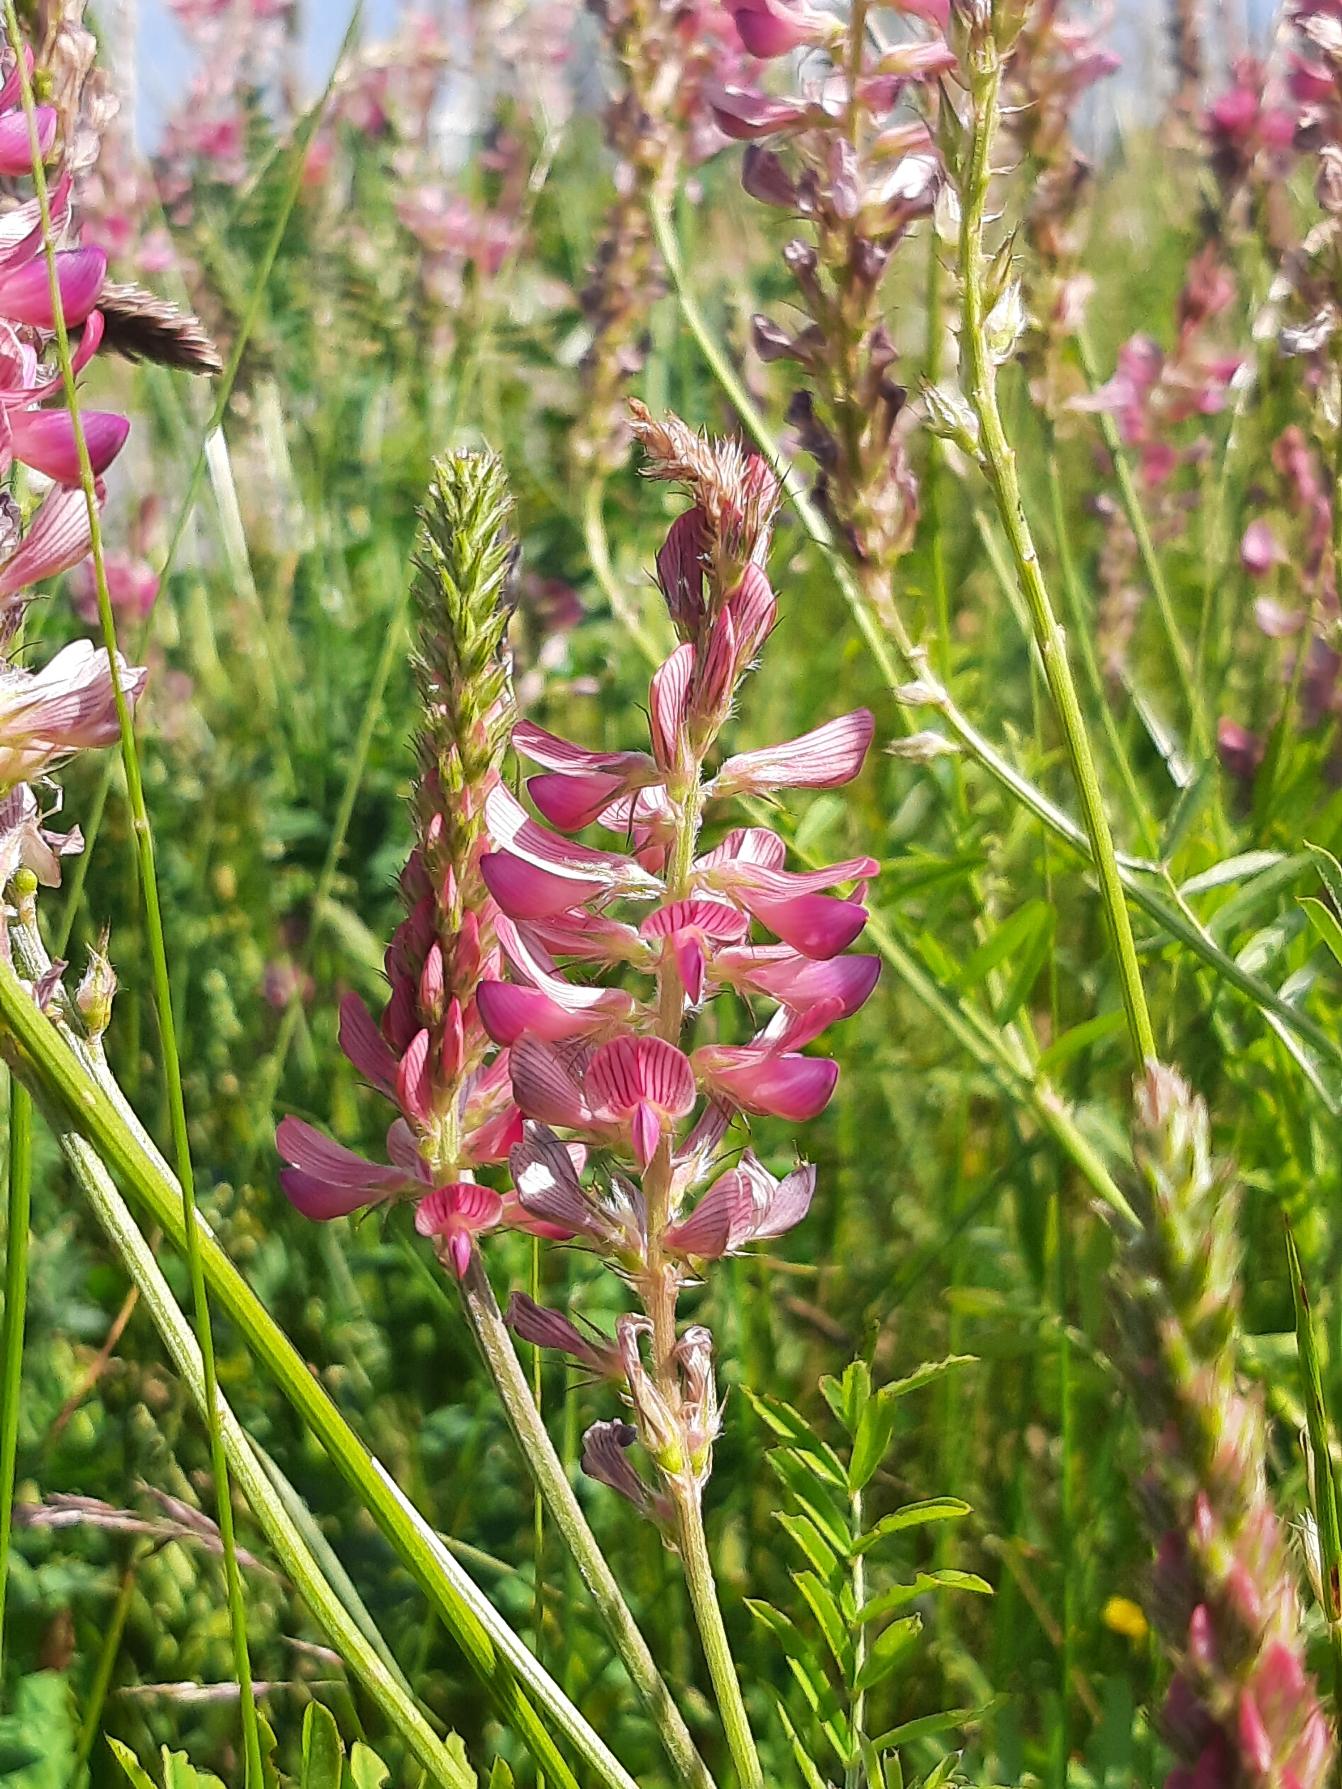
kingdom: Plantae
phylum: Tracheophyta
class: Magnoliopsida
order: Fabales
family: Fabaceae
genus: Onobrychis
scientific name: Onobrychis viciifolia
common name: Esparsette
